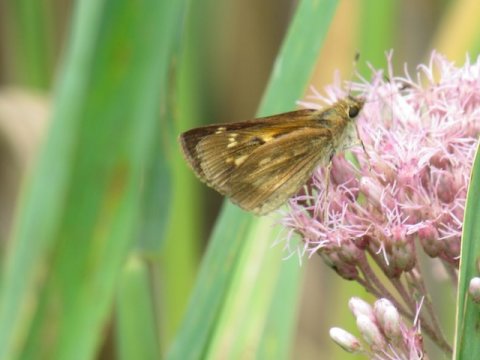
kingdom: Animalia
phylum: Arthropoda
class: Insecta
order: Lepidoptera
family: Hesperiidae
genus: Poanes
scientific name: Poanes viator
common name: Broad-winged Skipper
